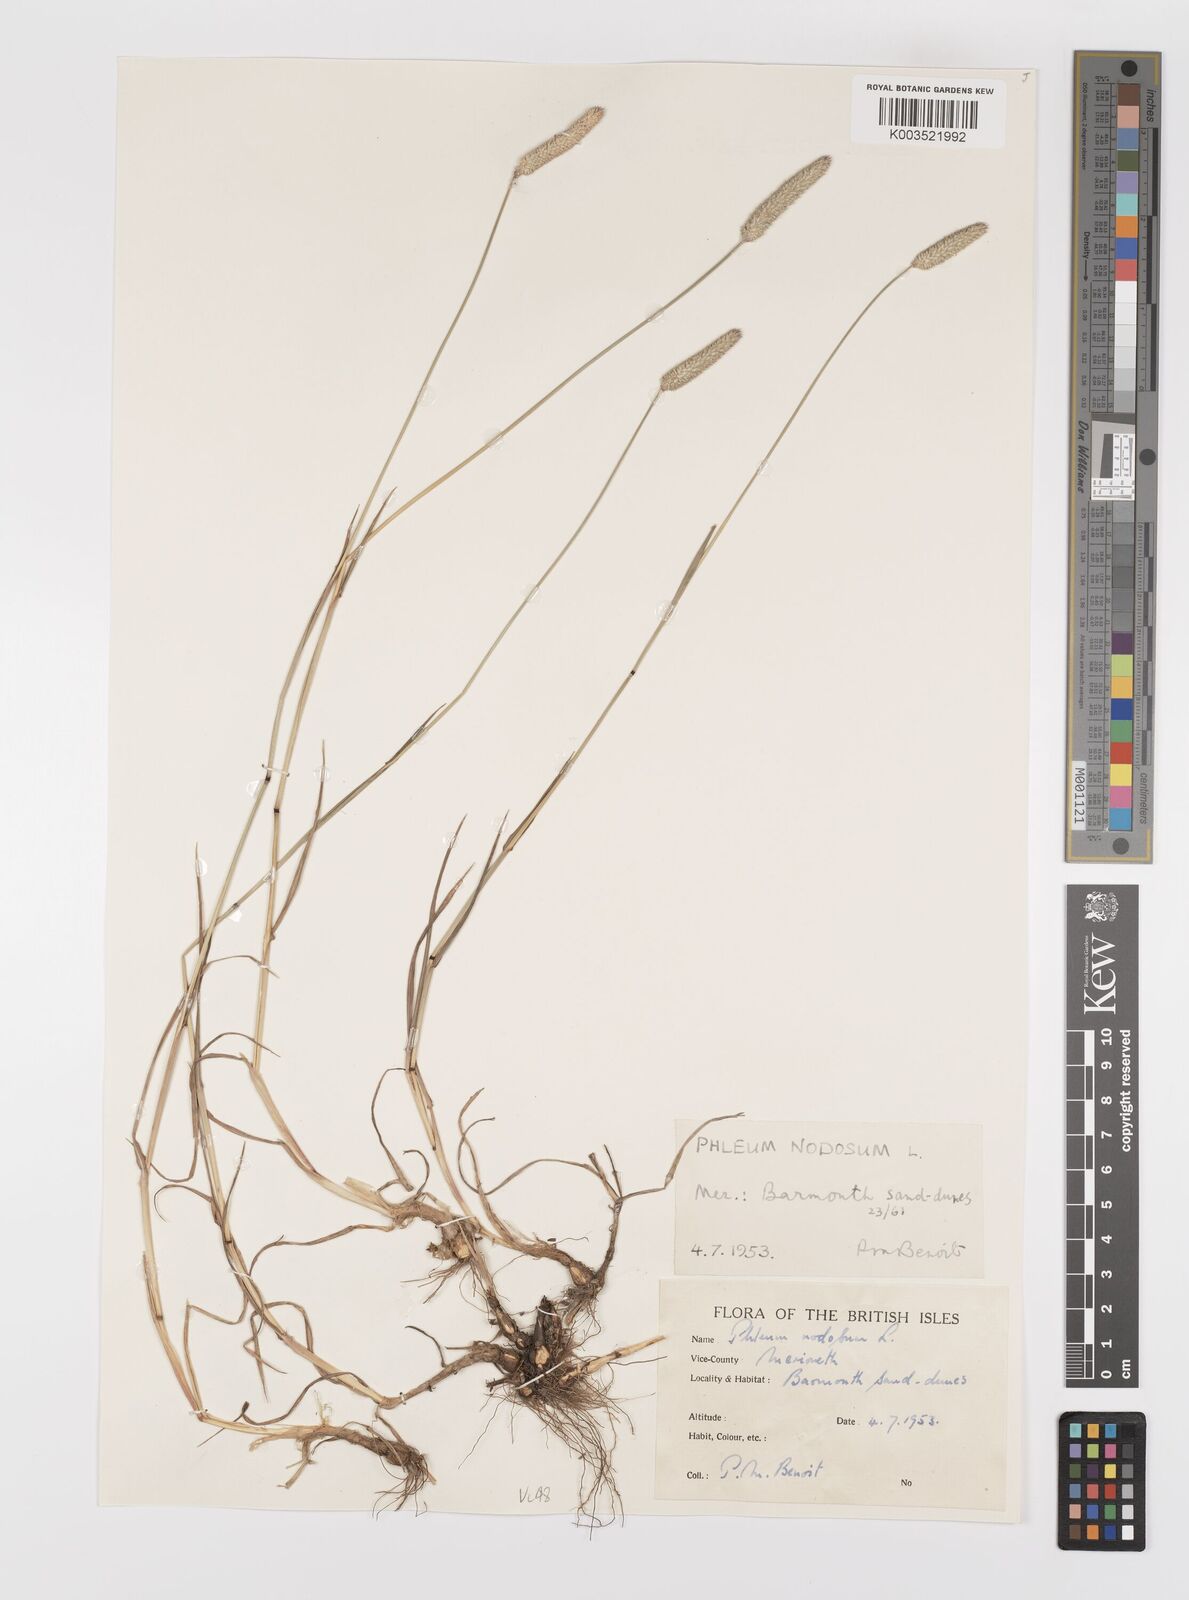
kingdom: Plantae
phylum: Tracheophyta
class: Liliopsida
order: Poales
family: Poaceae
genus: Phleum
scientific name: Phleum bertolonii
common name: Smaller cat's-tail
